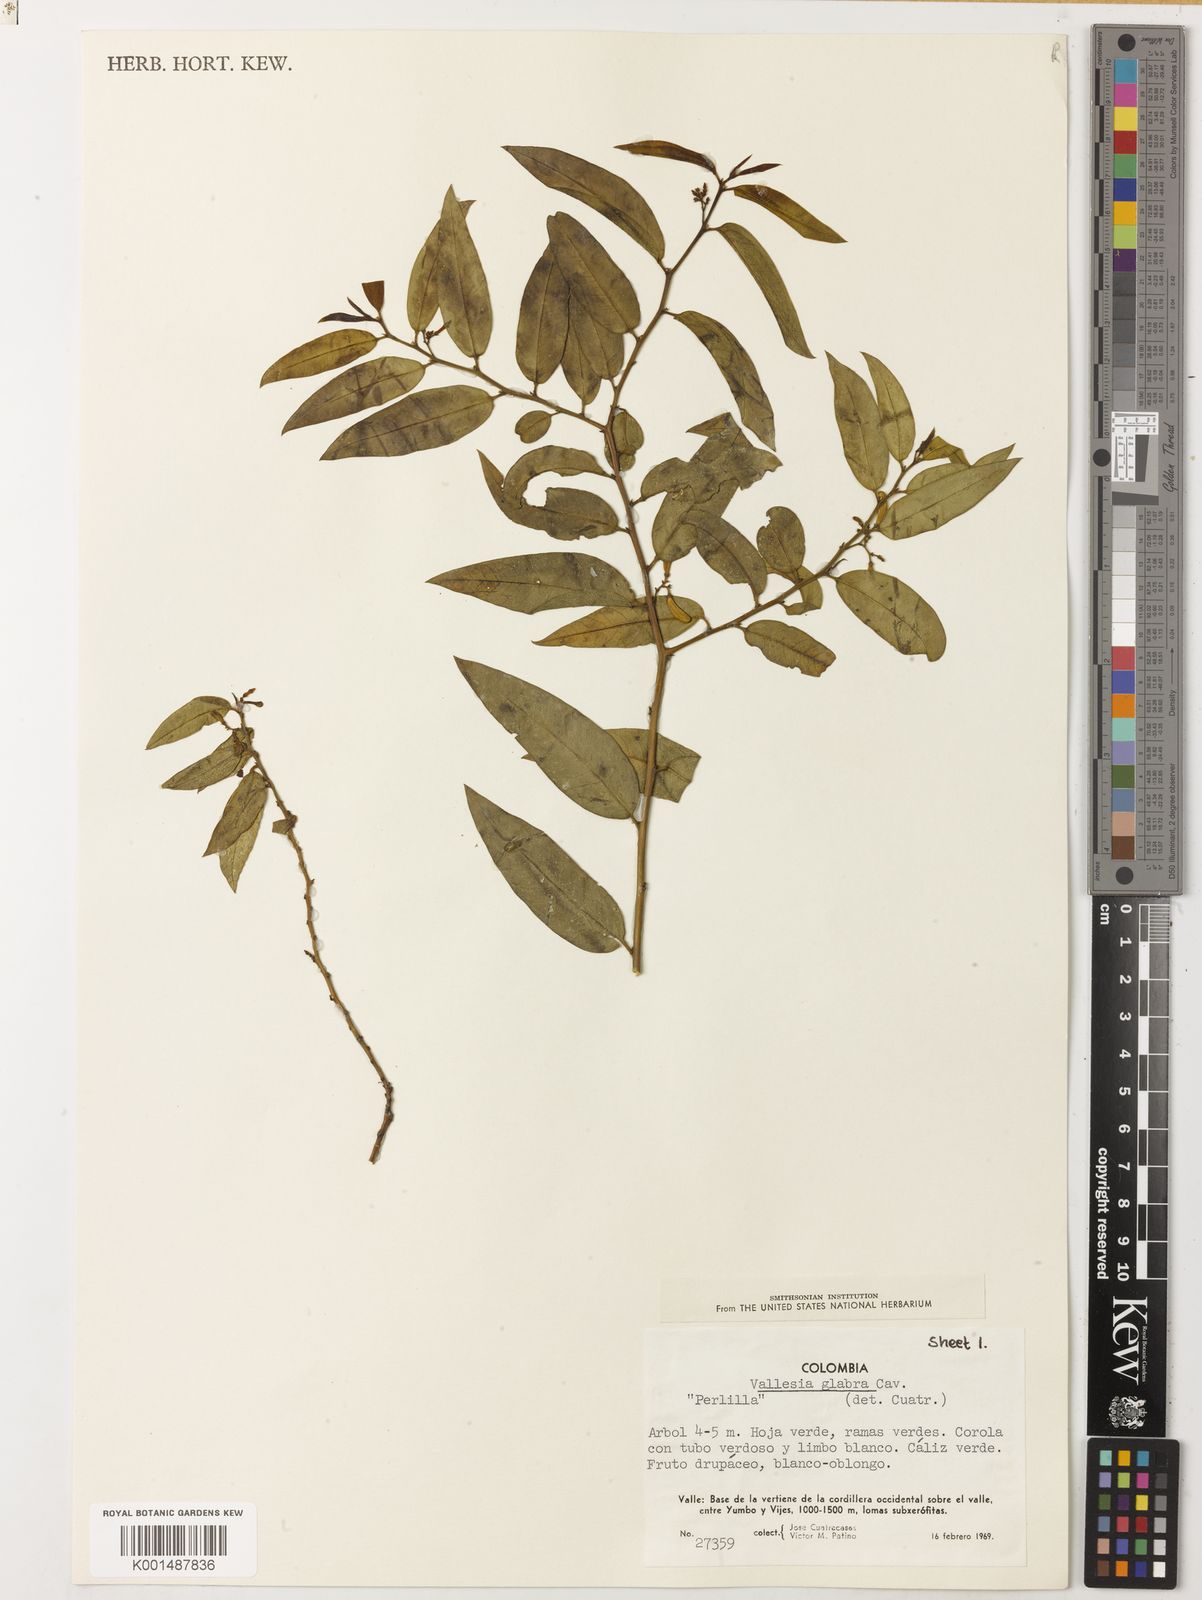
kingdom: Plantae
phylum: Tracheophyta
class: Magnoliopsida
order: Gentianales
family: Apocynaceae
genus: Vallesia
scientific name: Vallesia glabra
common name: Pearlberry
